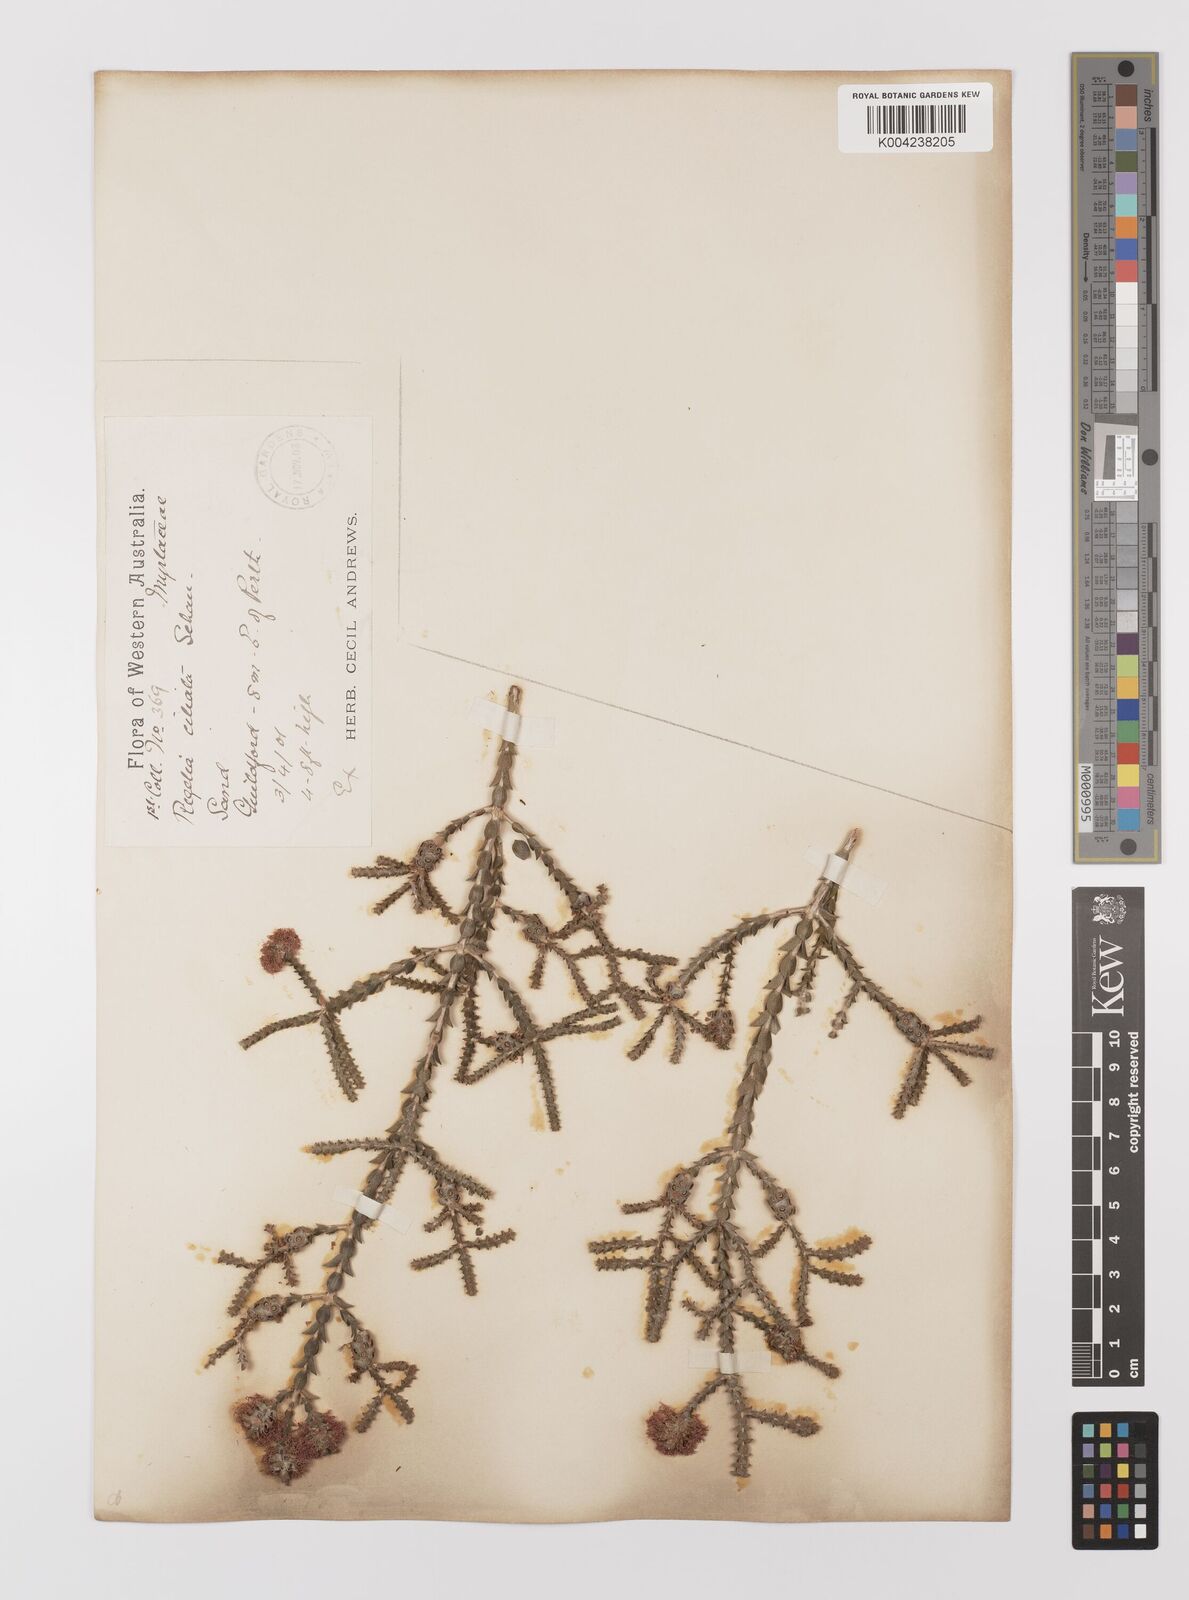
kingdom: Plantae
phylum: Tracheophyta
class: Magnoliopsida
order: Myrtales
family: Myrtaceae
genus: Melaleuca
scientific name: Melaleuca crossota
